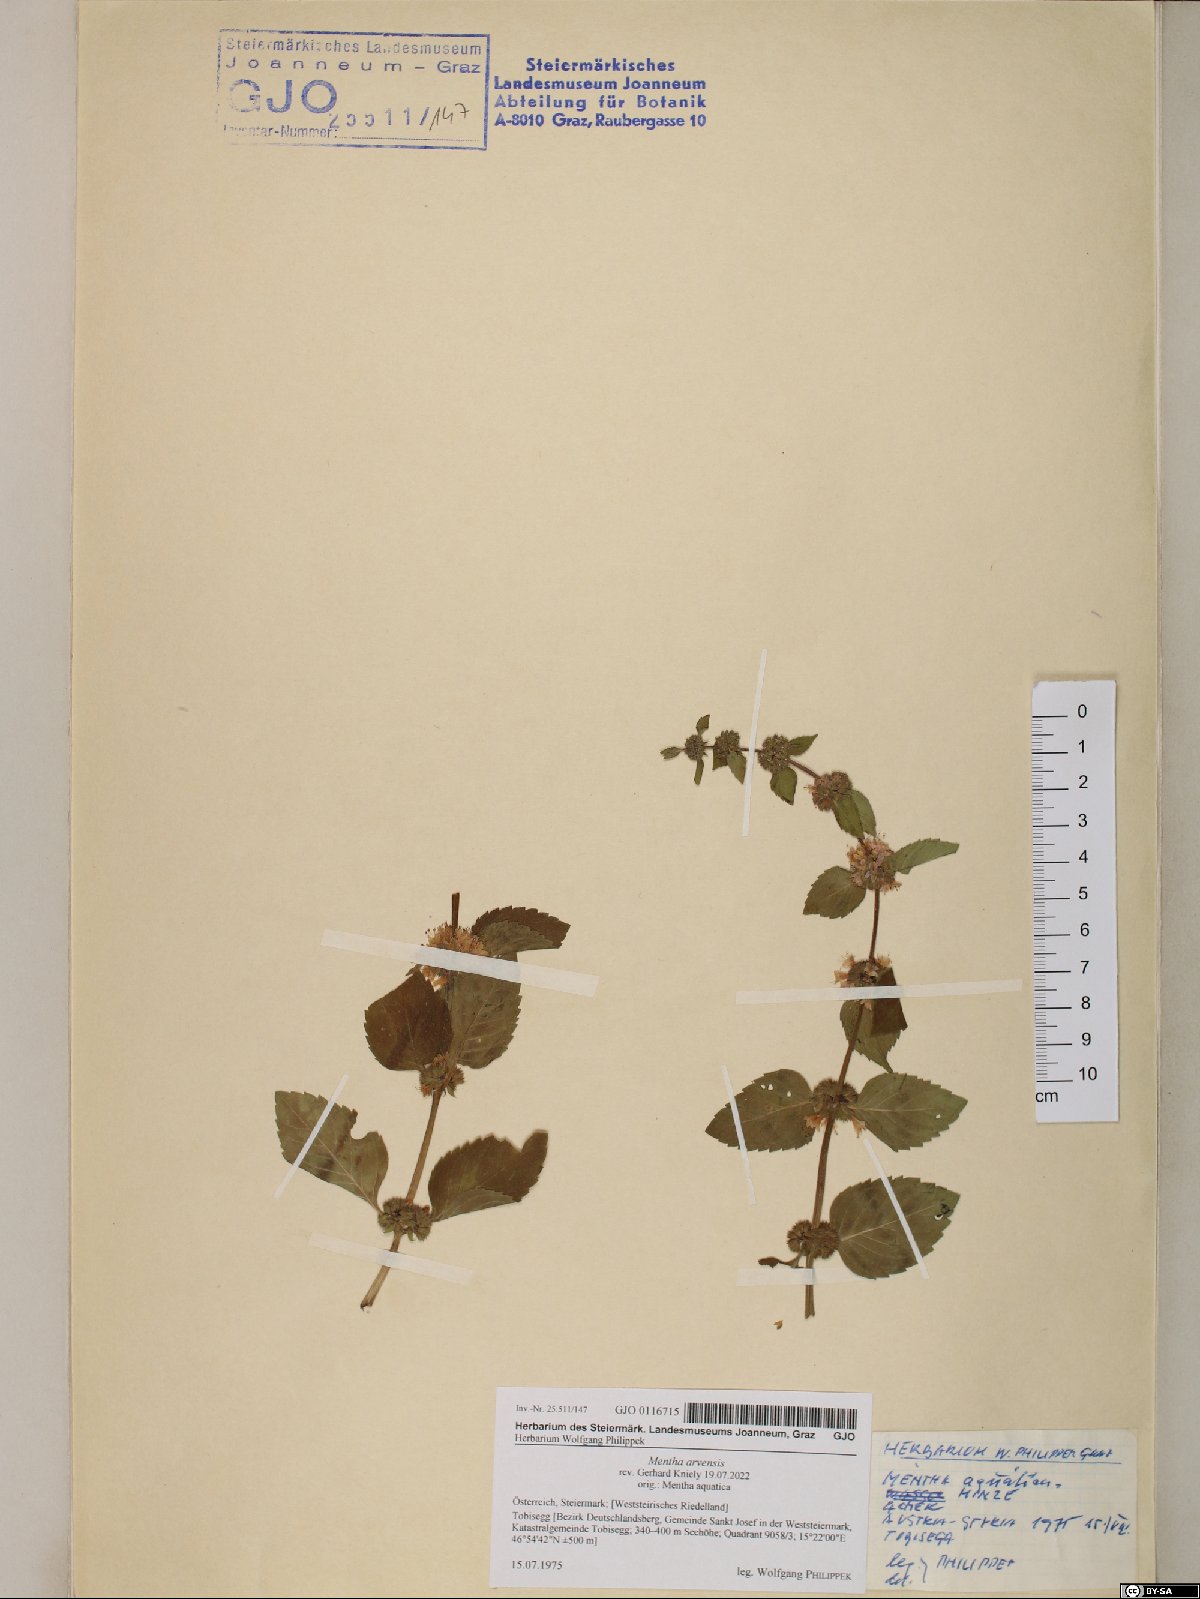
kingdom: Plantae
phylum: Tracheophyta
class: Magnoliopsida
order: Lamiales
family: Lamiaceae
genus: Mentha
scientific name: Mentha arvensis
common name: Corn mint
